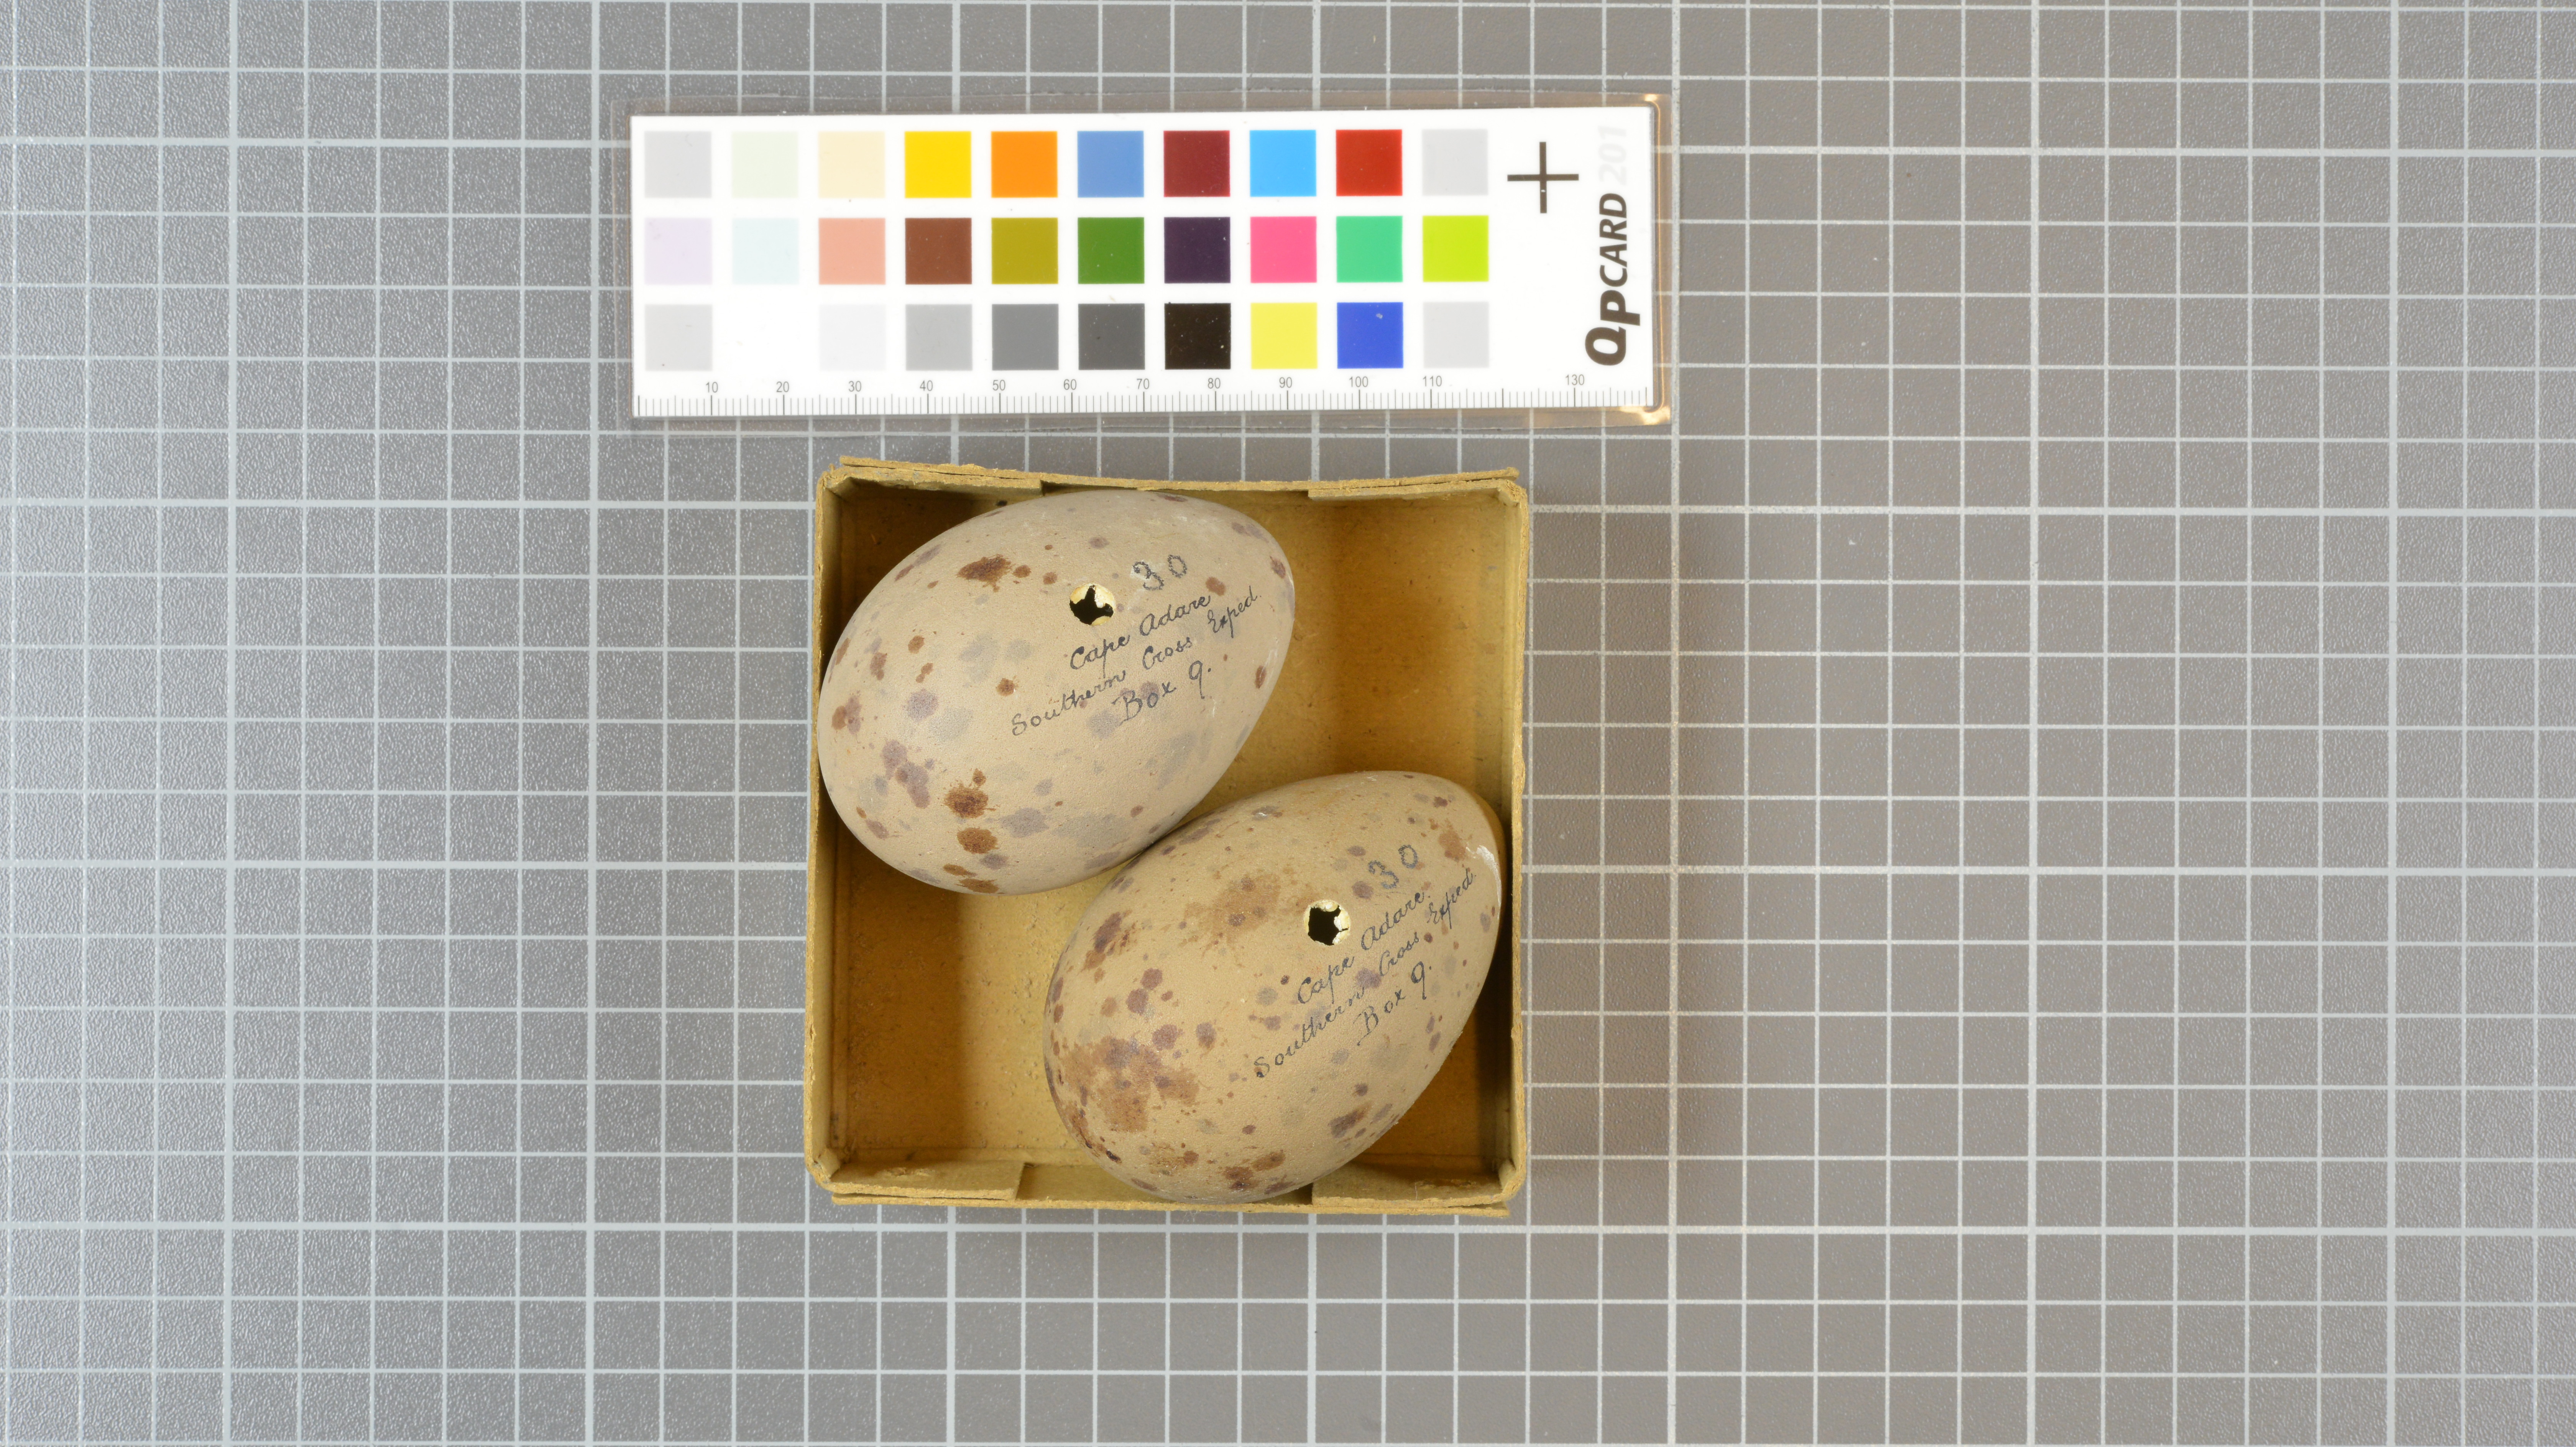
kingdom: Animalia
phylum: Chordata
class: Aves
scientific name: Aves
